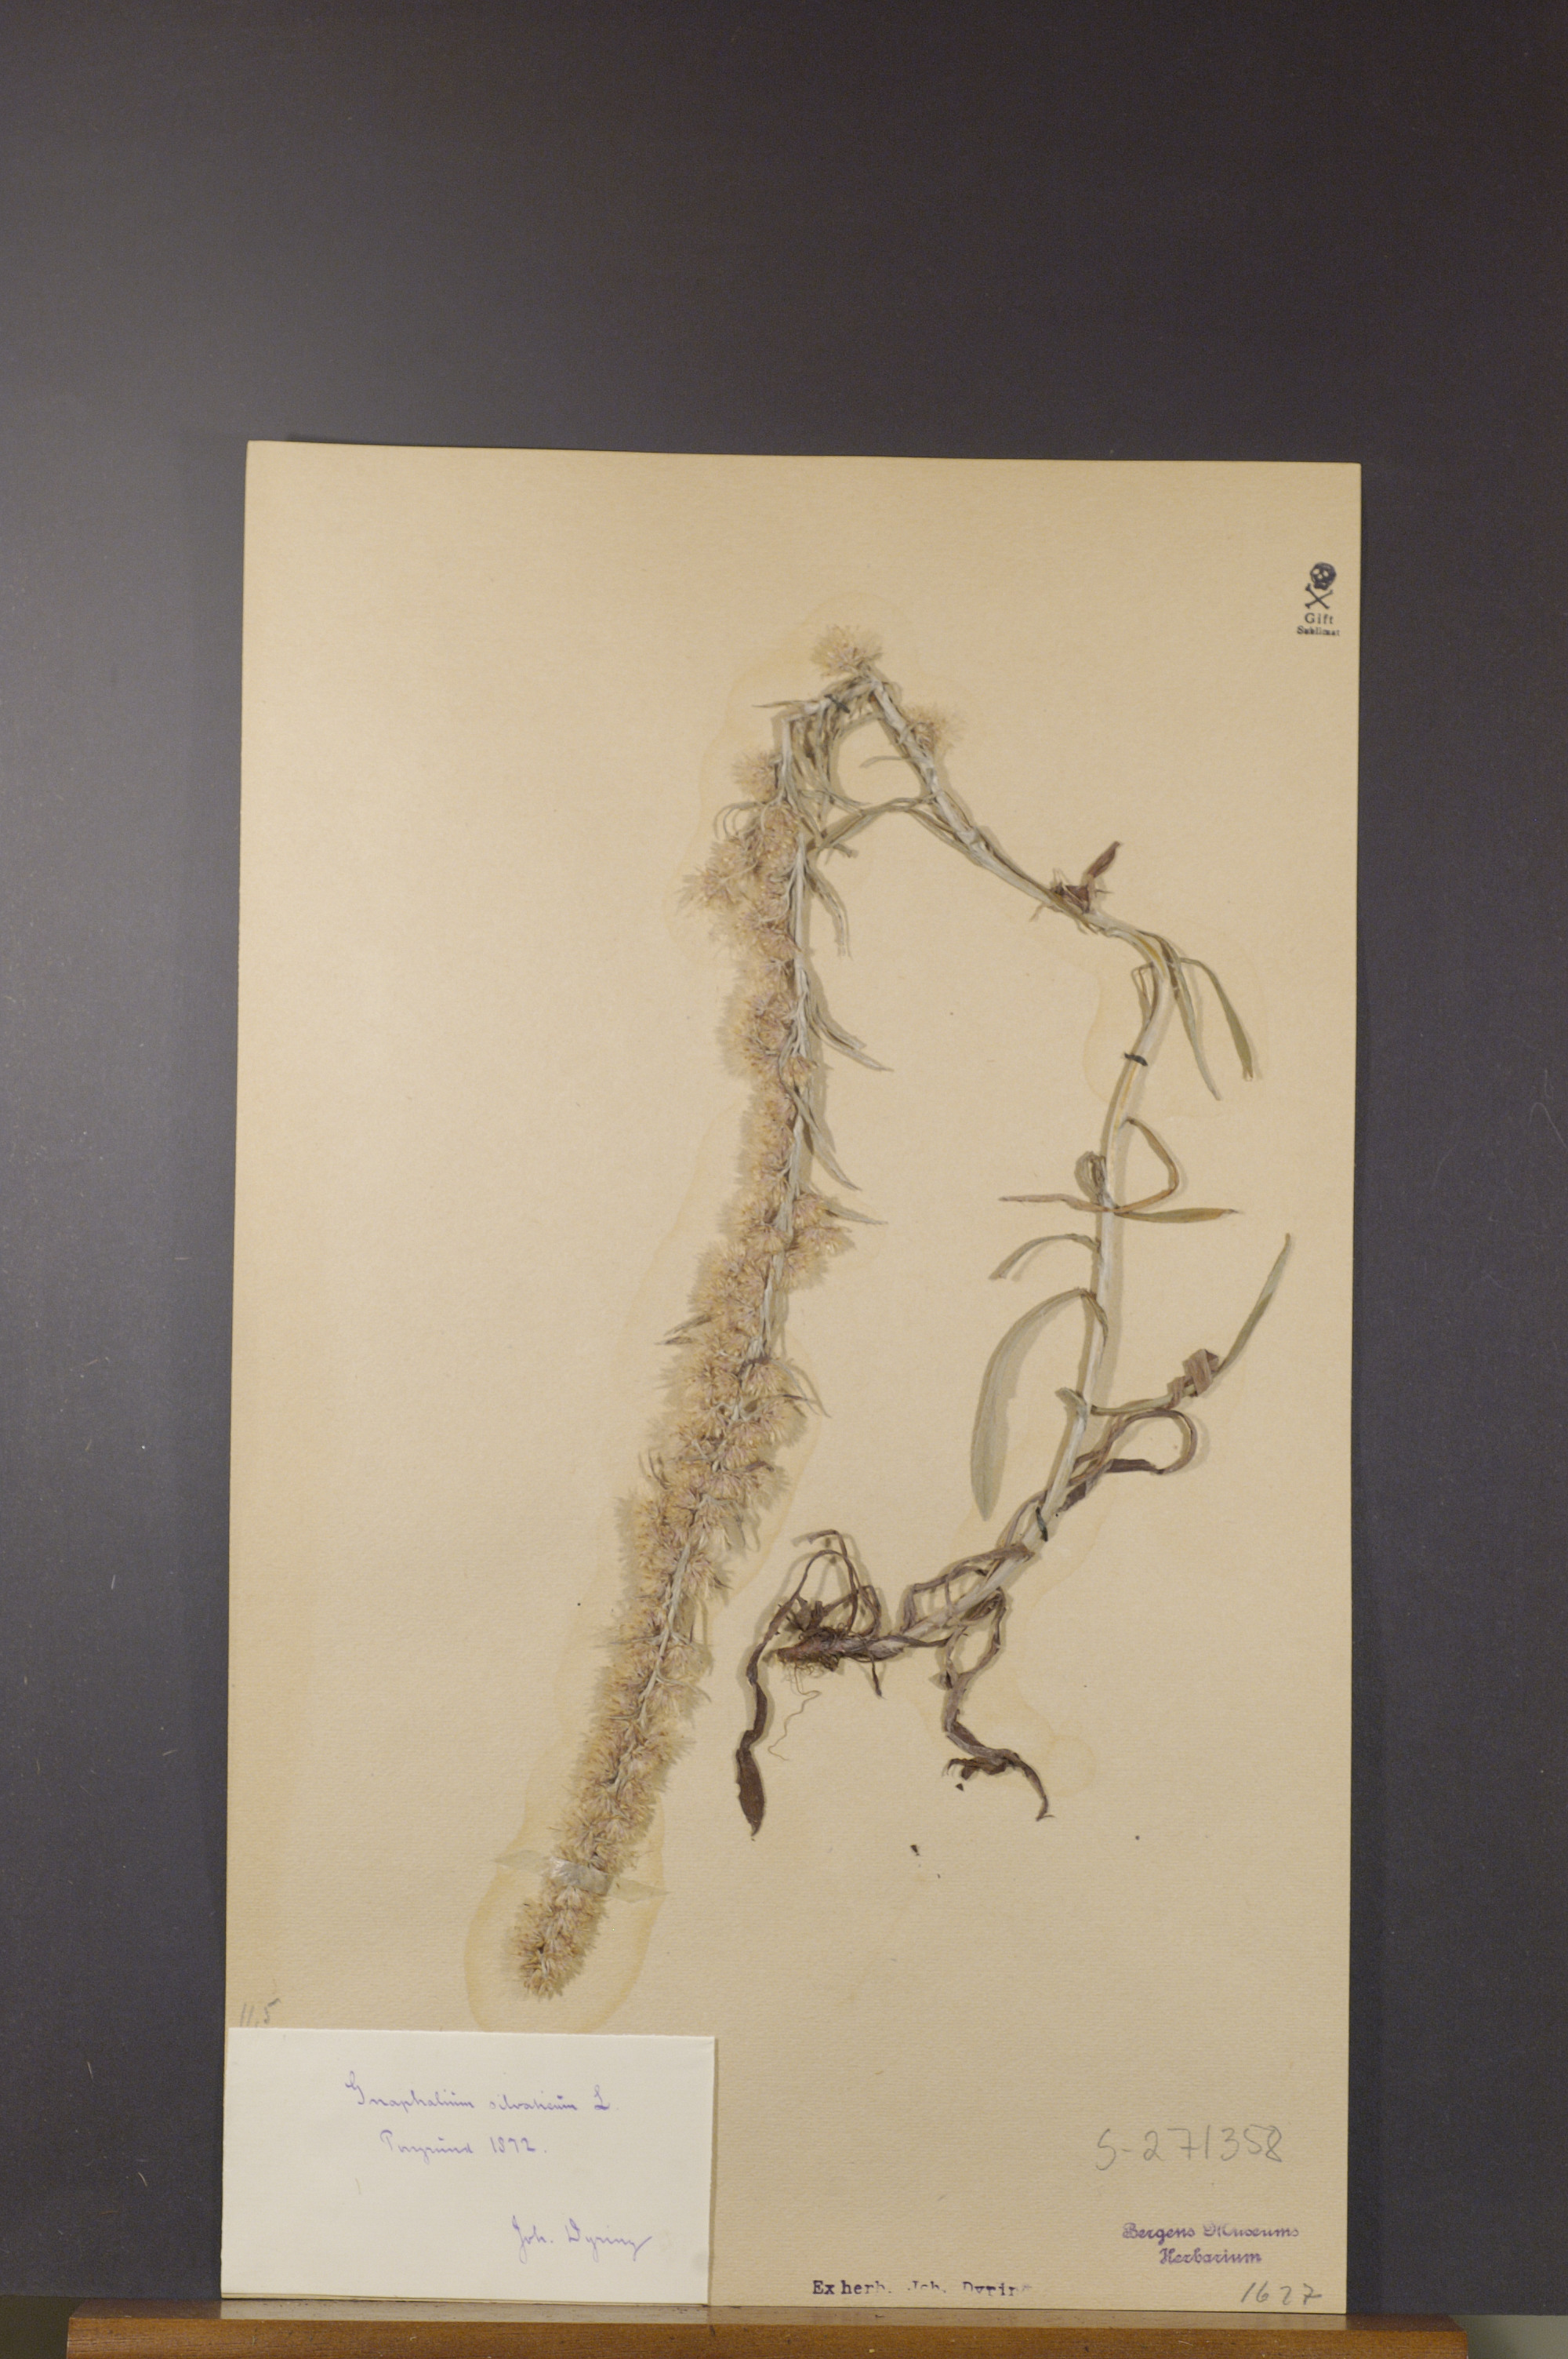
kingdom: Plantae
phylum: Tracheophyta
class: Magnoliopsida
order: Asterales
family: Asteraceae
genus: Omalotheca
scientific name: Omalotheca sylvatica
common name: Heath cudweed
